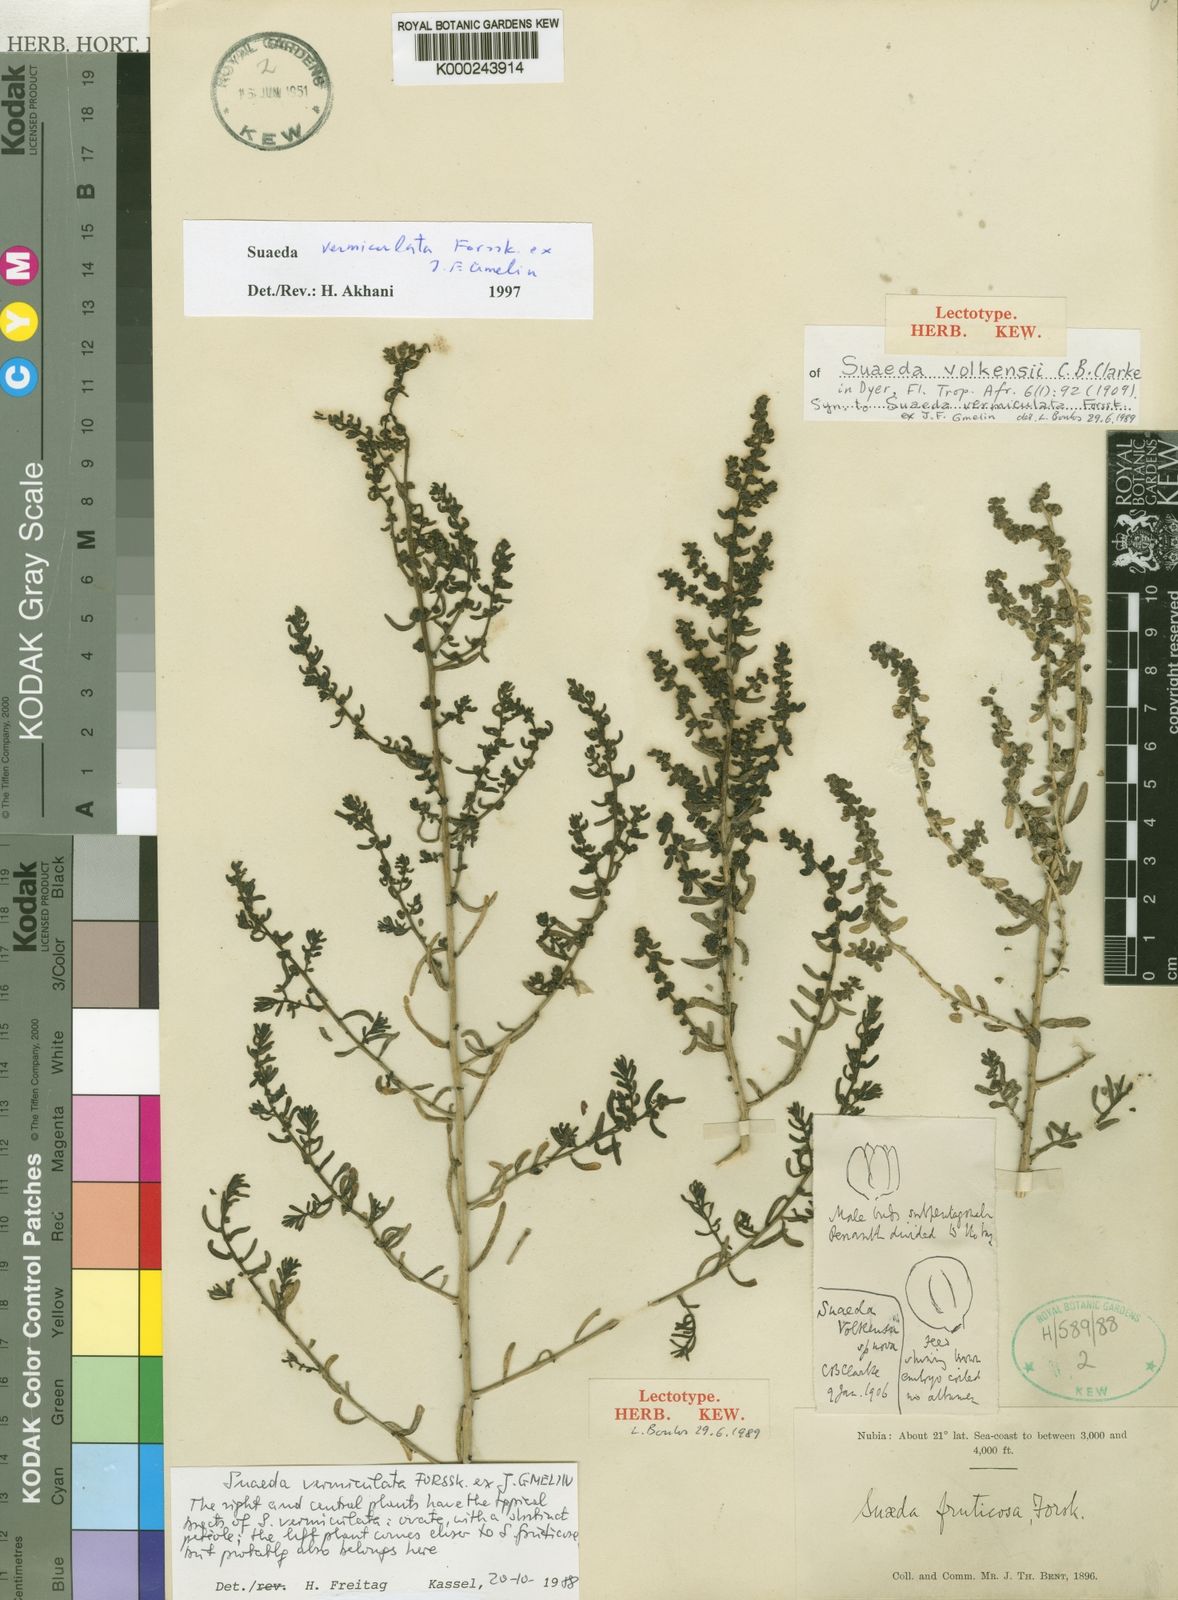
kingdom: Plantae
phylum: Tracheophyta
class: Magnoliopsida
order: Caryophyllales
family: Amaranthaceae
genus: Suaeda
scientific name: Suaeda vermiculata
